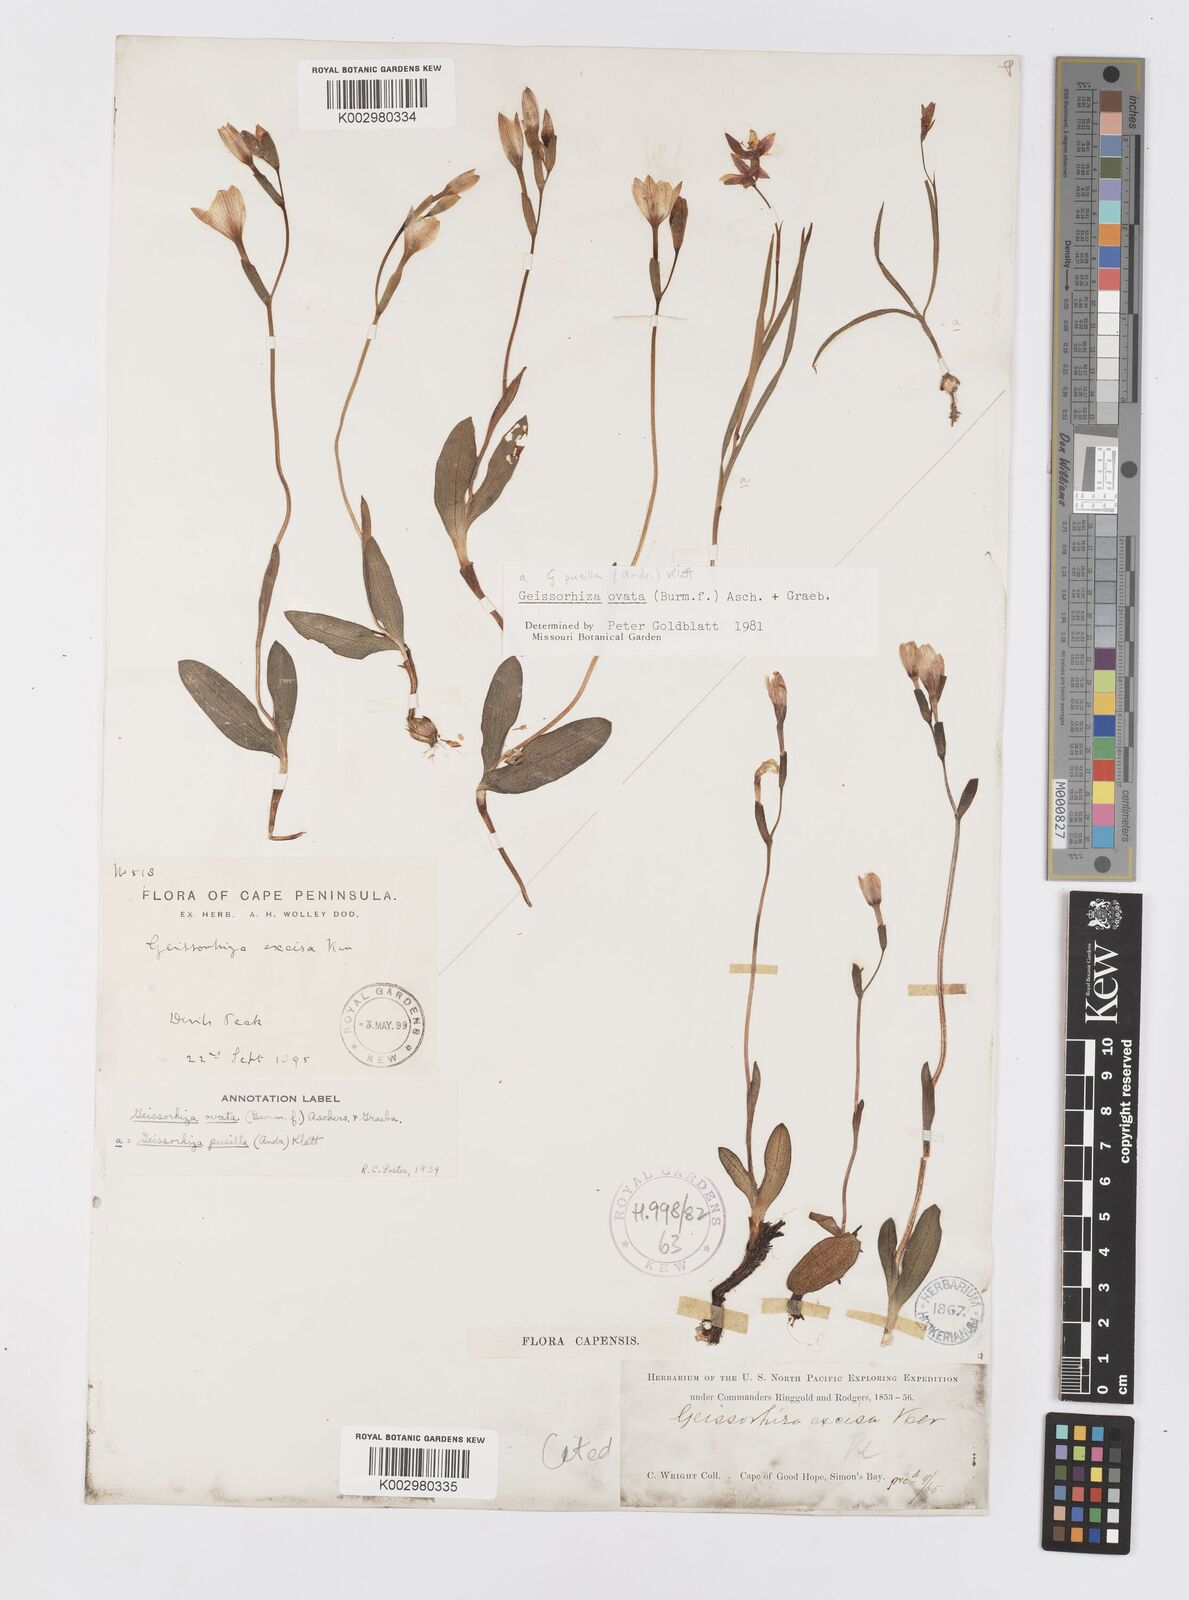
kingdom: Plantae
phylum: Tracheophyta
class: Liliopsida
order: Asparagales
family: Iridaceae
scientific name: Iridaceae
